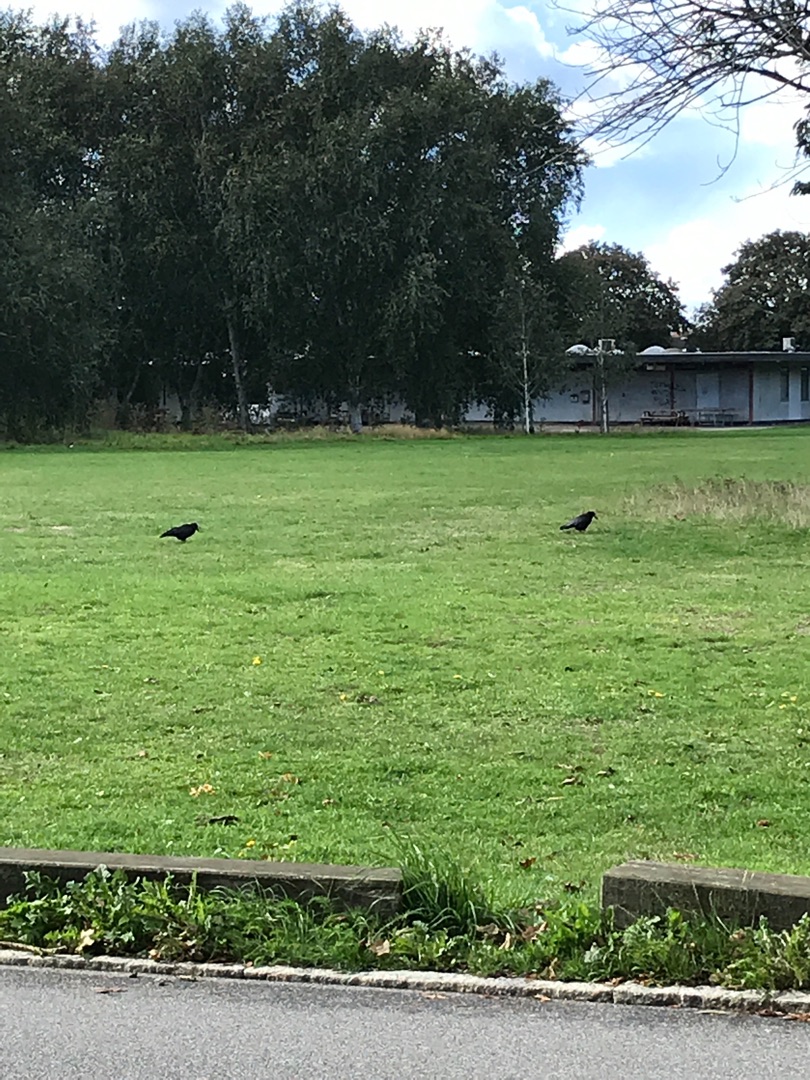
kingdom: Animalia
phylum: Chordata
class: Aves
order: Passeriformes
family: Corvidae
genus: Corvus
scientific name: Corvus frugilegus
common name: Råge
